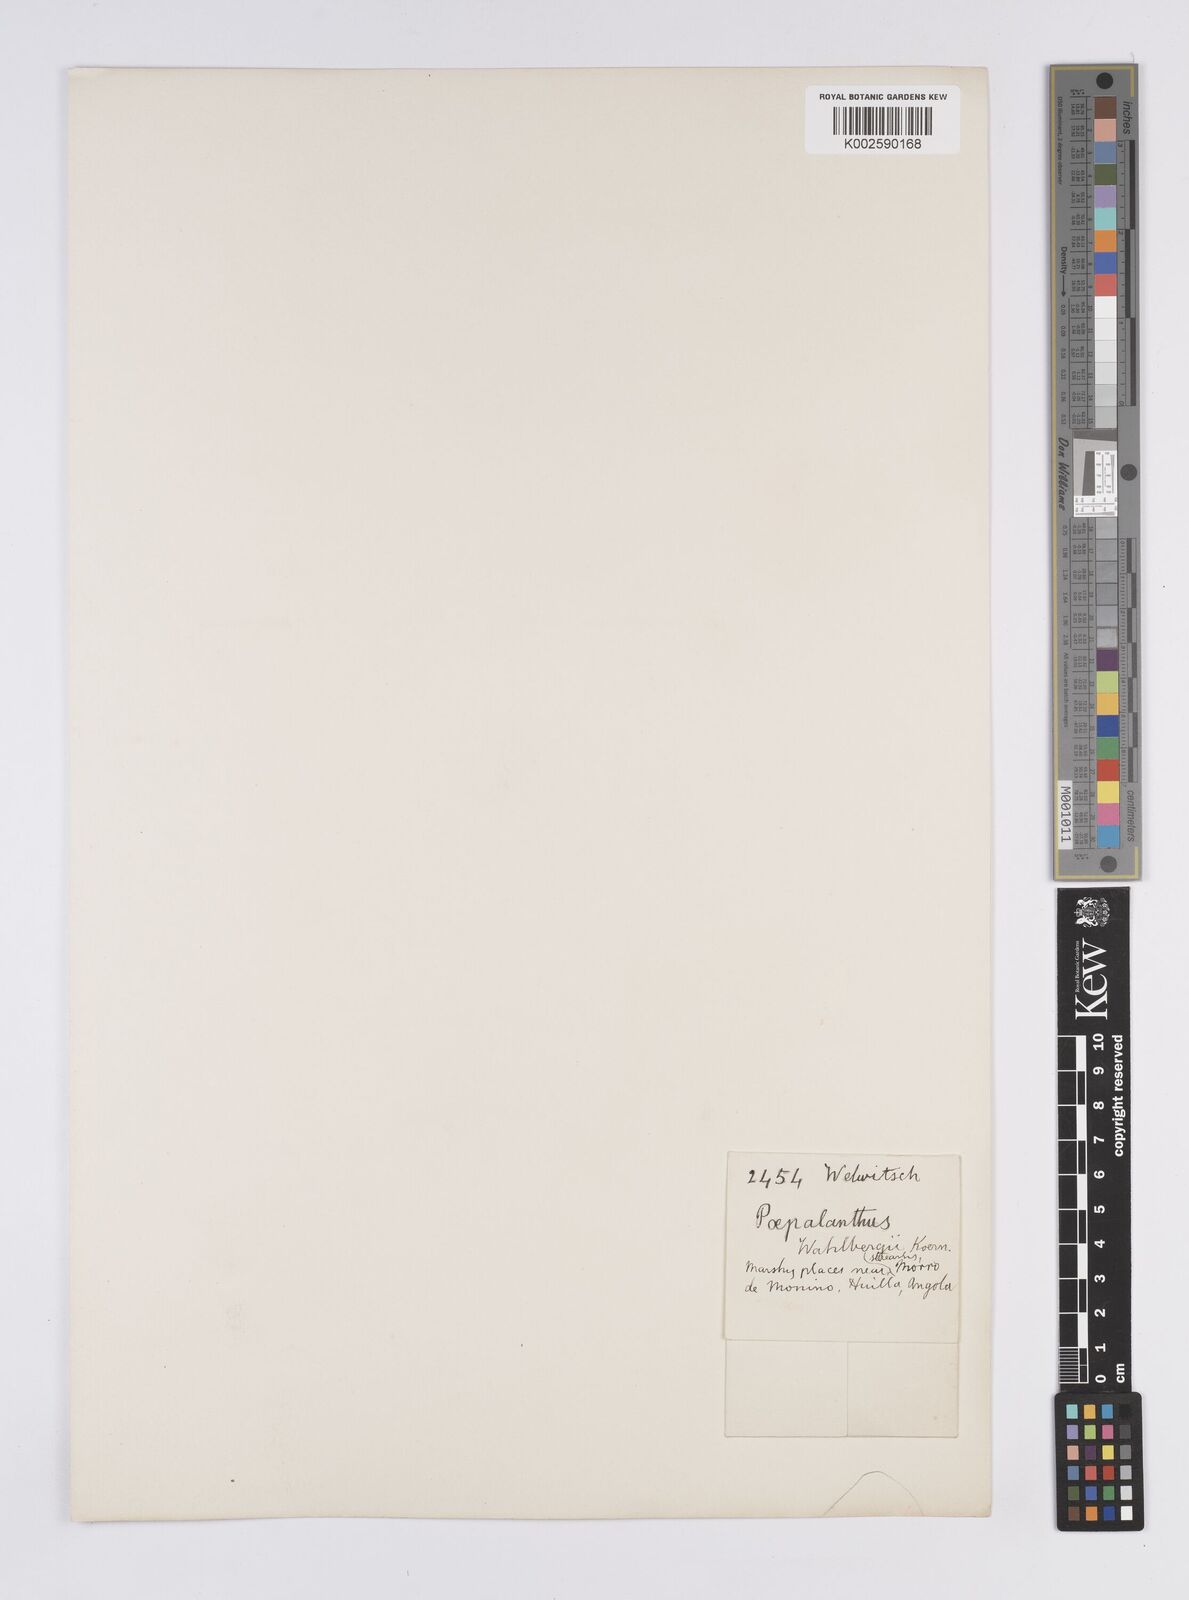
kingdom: Plantae
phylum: Tracheophyta
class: Liliopsida
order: Poales
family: Eriocaulaceae
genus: Syngonanthus
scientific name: Syngonanthus wahlbergii
